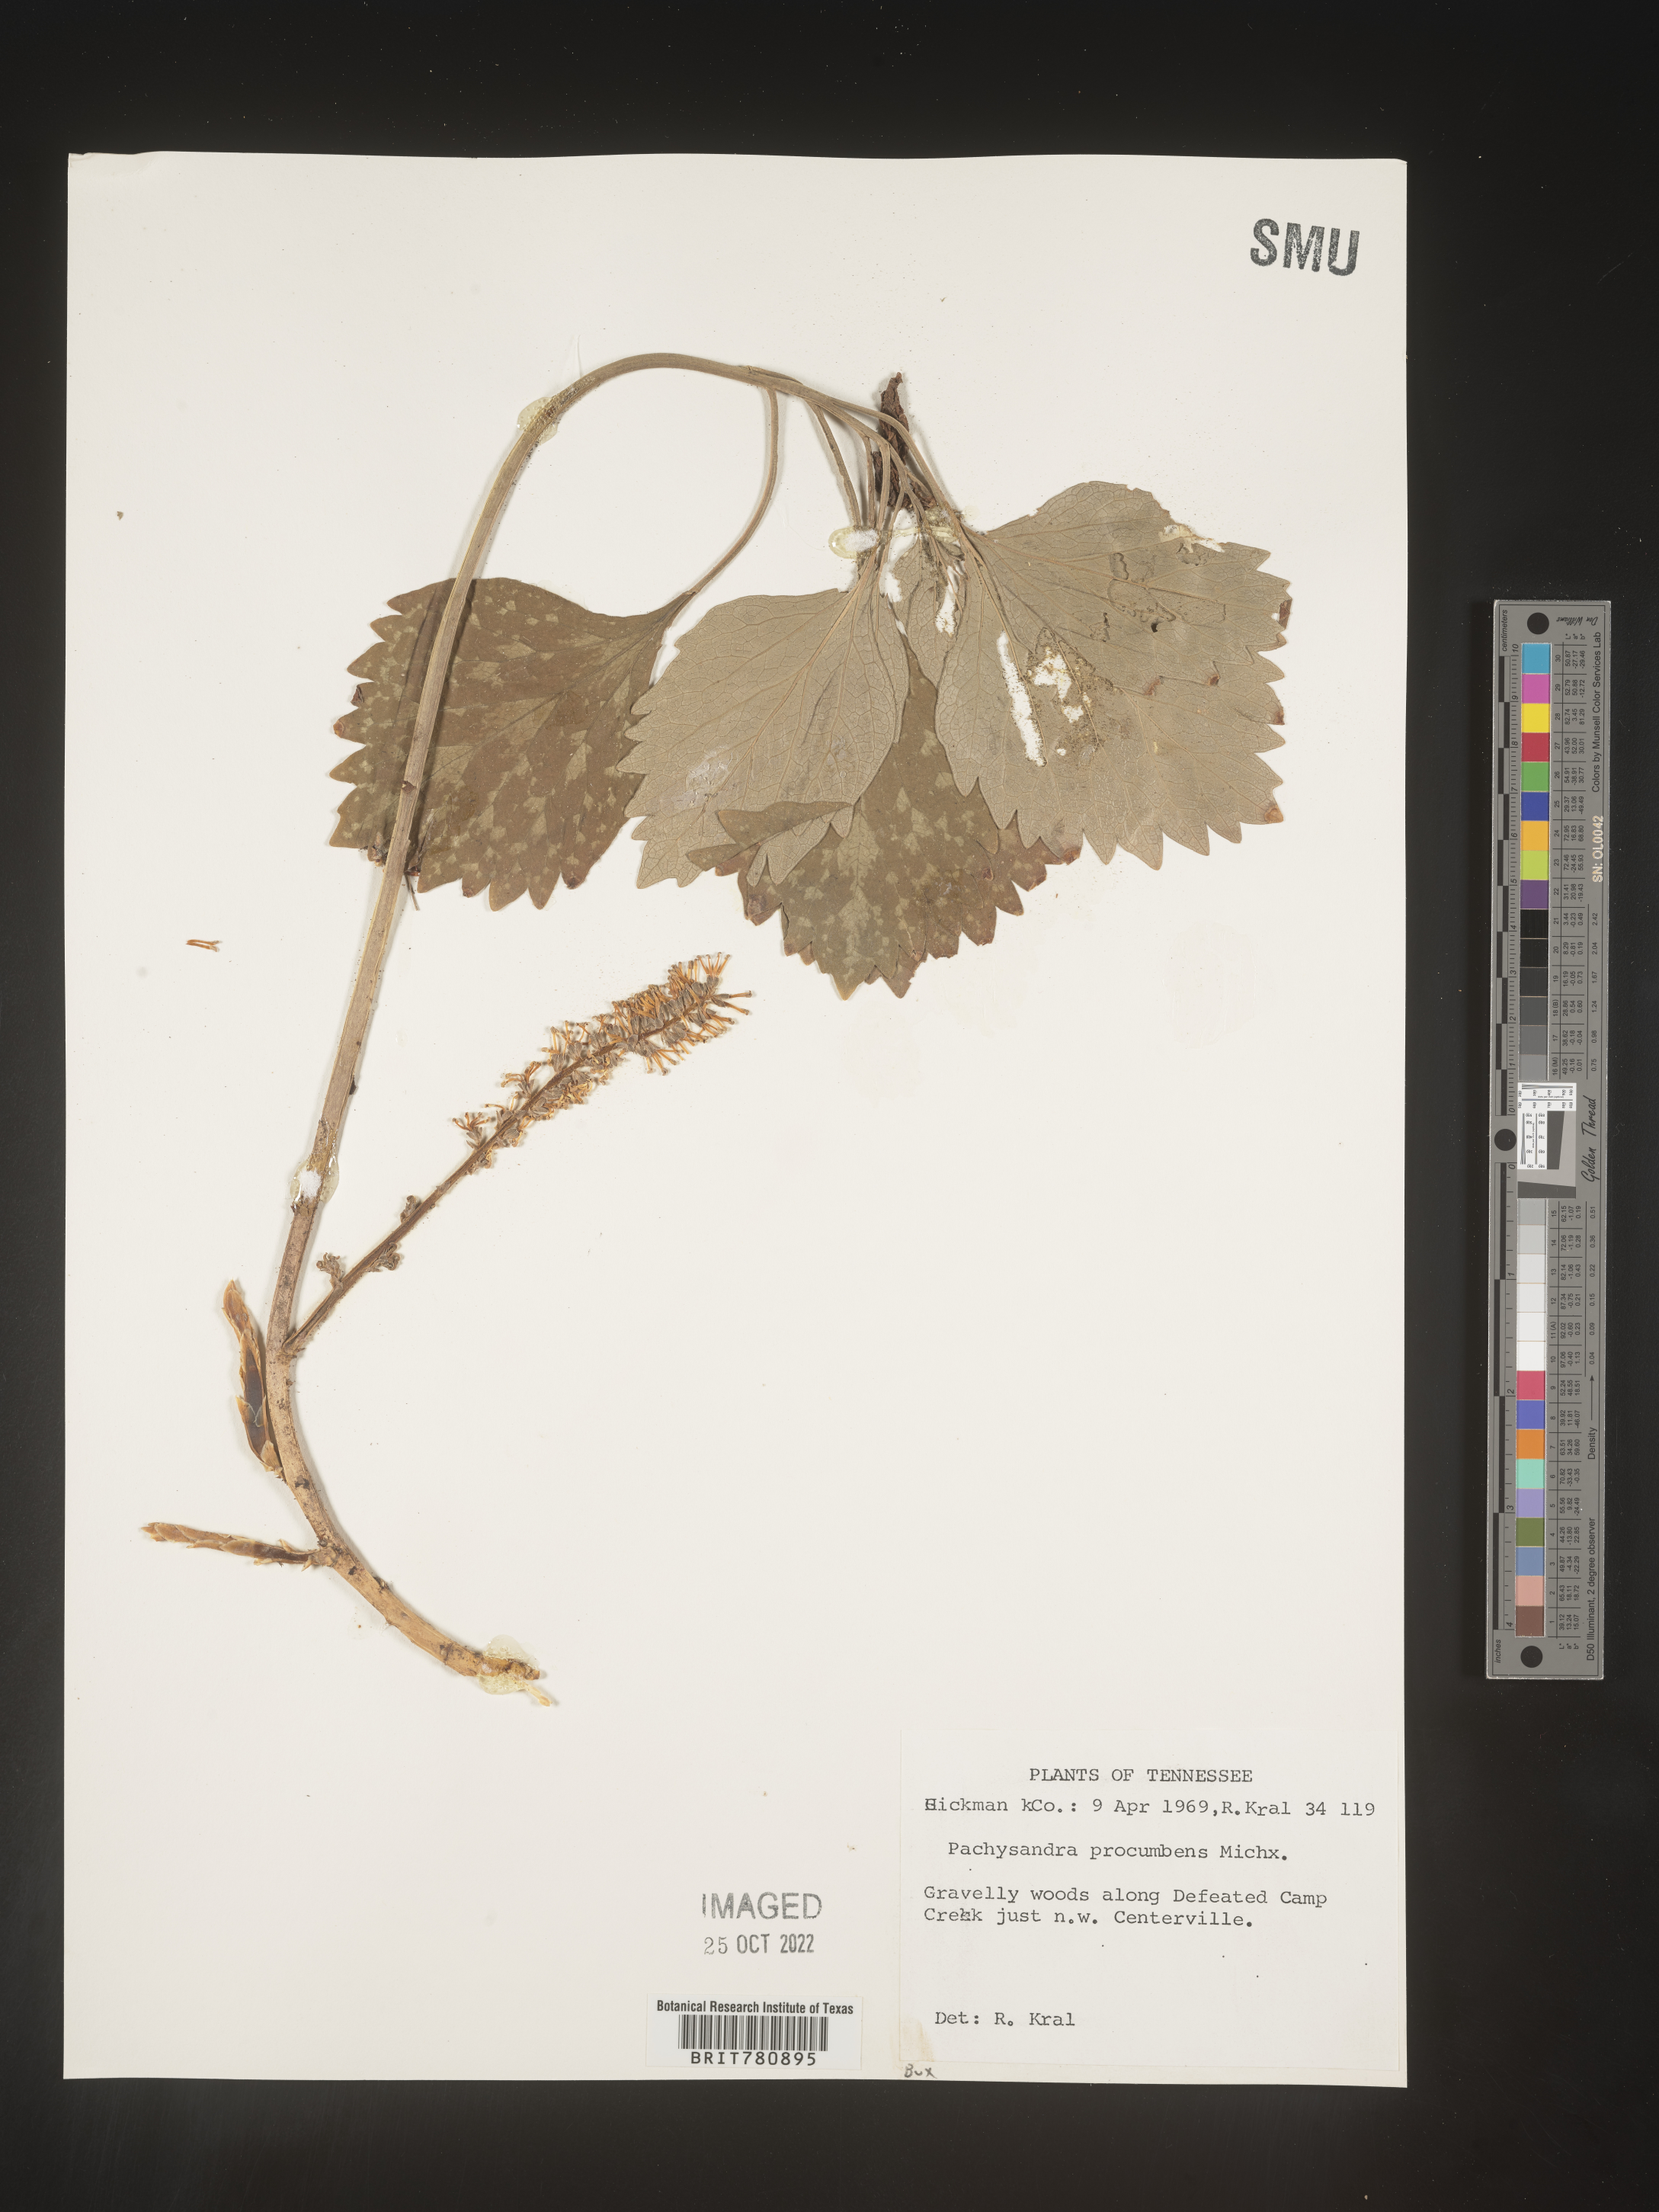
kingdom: Plantae
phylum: Tracheophyta
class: Magnoliopsida
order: Buxales
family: Buxaceae
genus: Pachysandra
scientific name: Pachysandra
